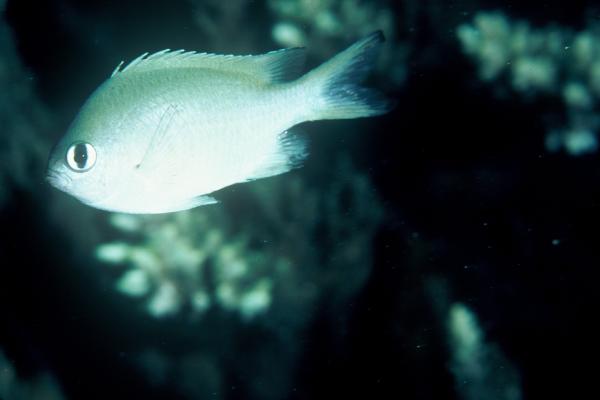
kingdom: Animalia
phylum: Chordata
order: Perciformes
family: Pomacentridae
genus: Chromis
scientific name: Chromis lepidolepis
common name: Scaly chromis
